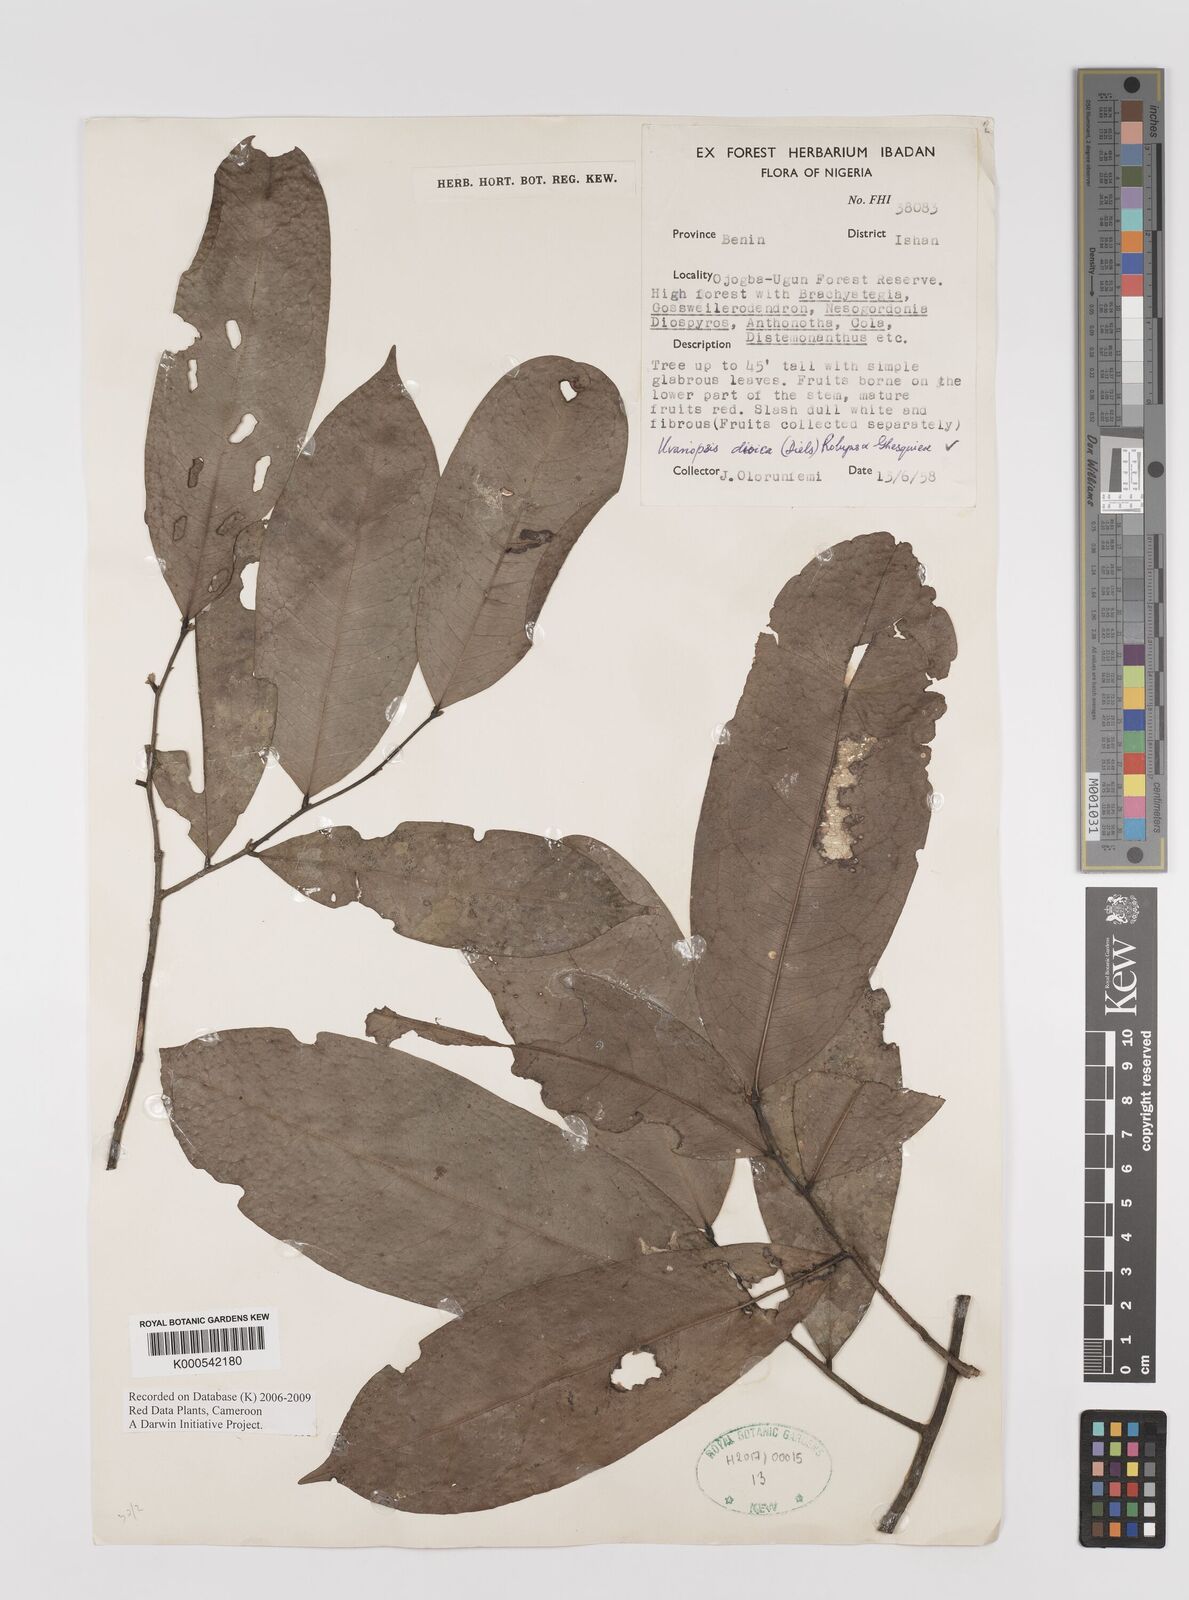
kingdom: Plantae
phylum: Tracheophyta
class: Magnoliopsida
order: Magnoliales
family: Annonaceae
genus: Uvariopsis
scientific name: Uvariopsis dioica
